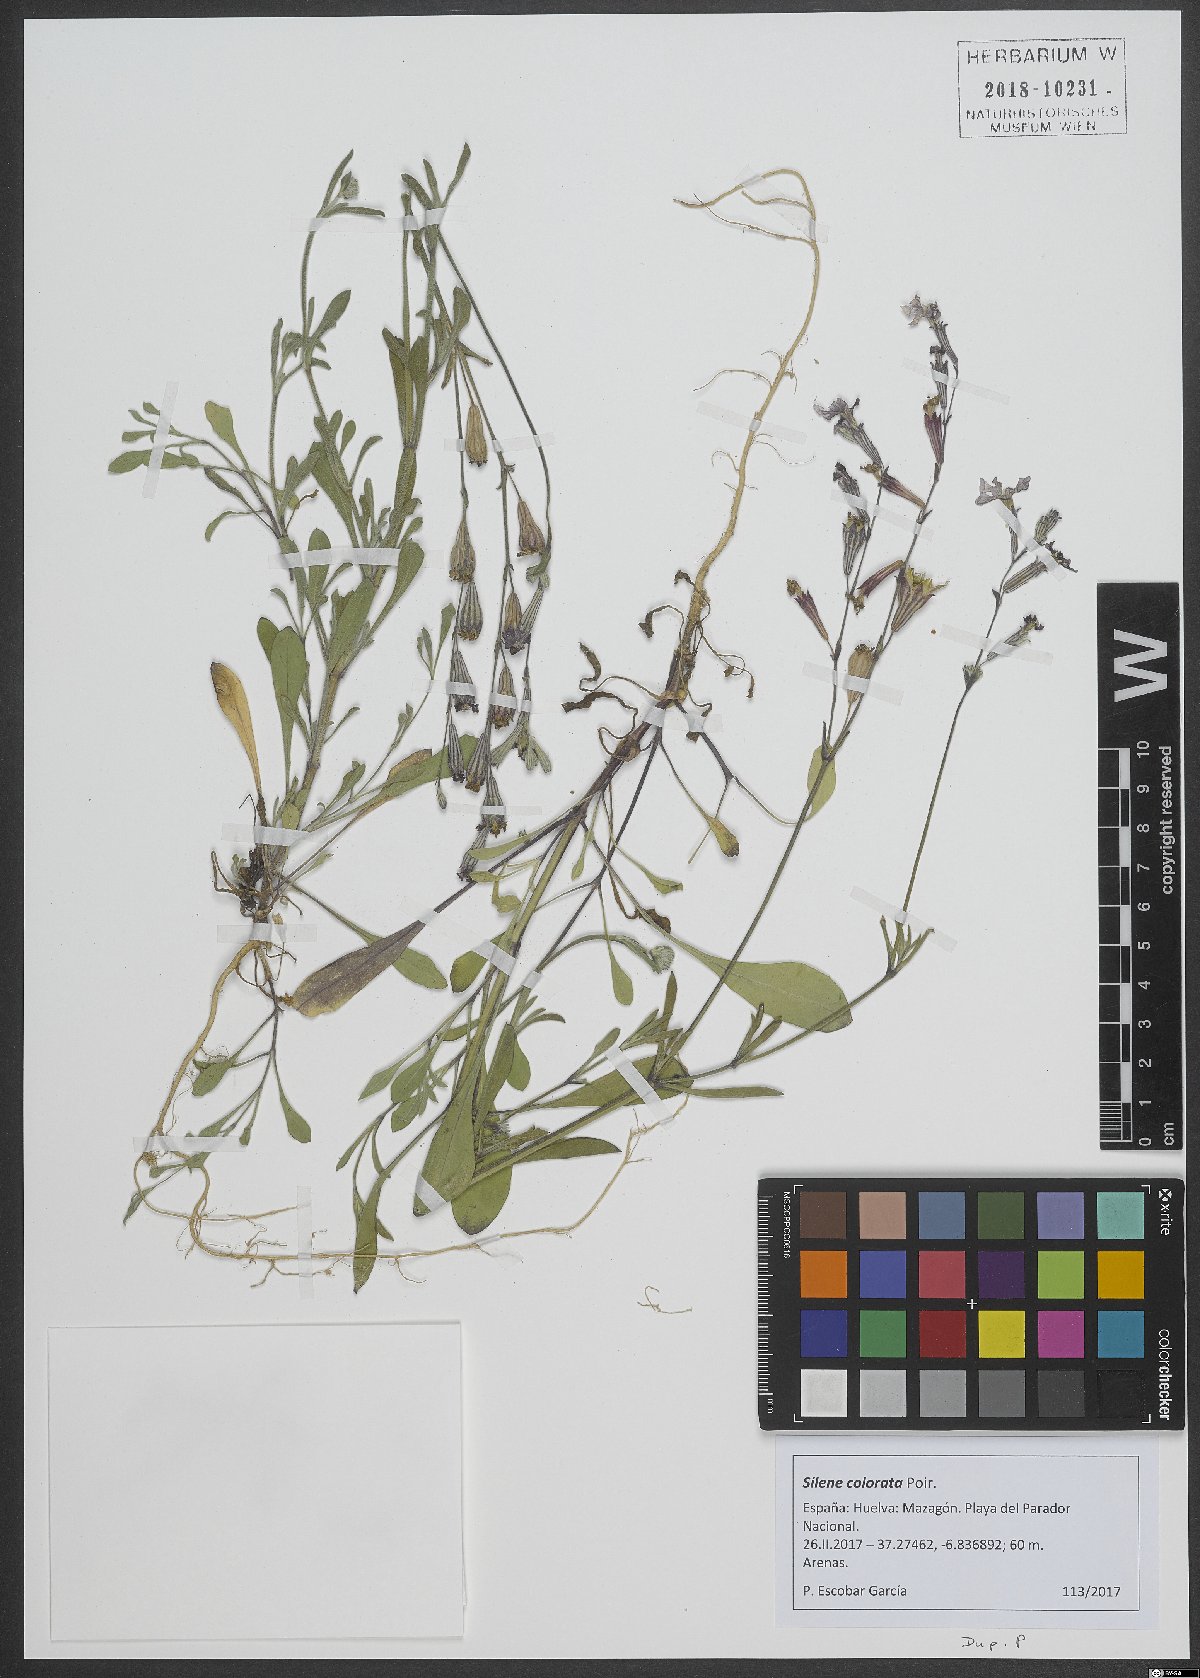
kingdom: Plantae
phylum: Tracheophyta
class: Magnoliopsida
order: Caryophyllales
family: Caryophyllaceae
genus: Silene
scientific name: Silene colorata
